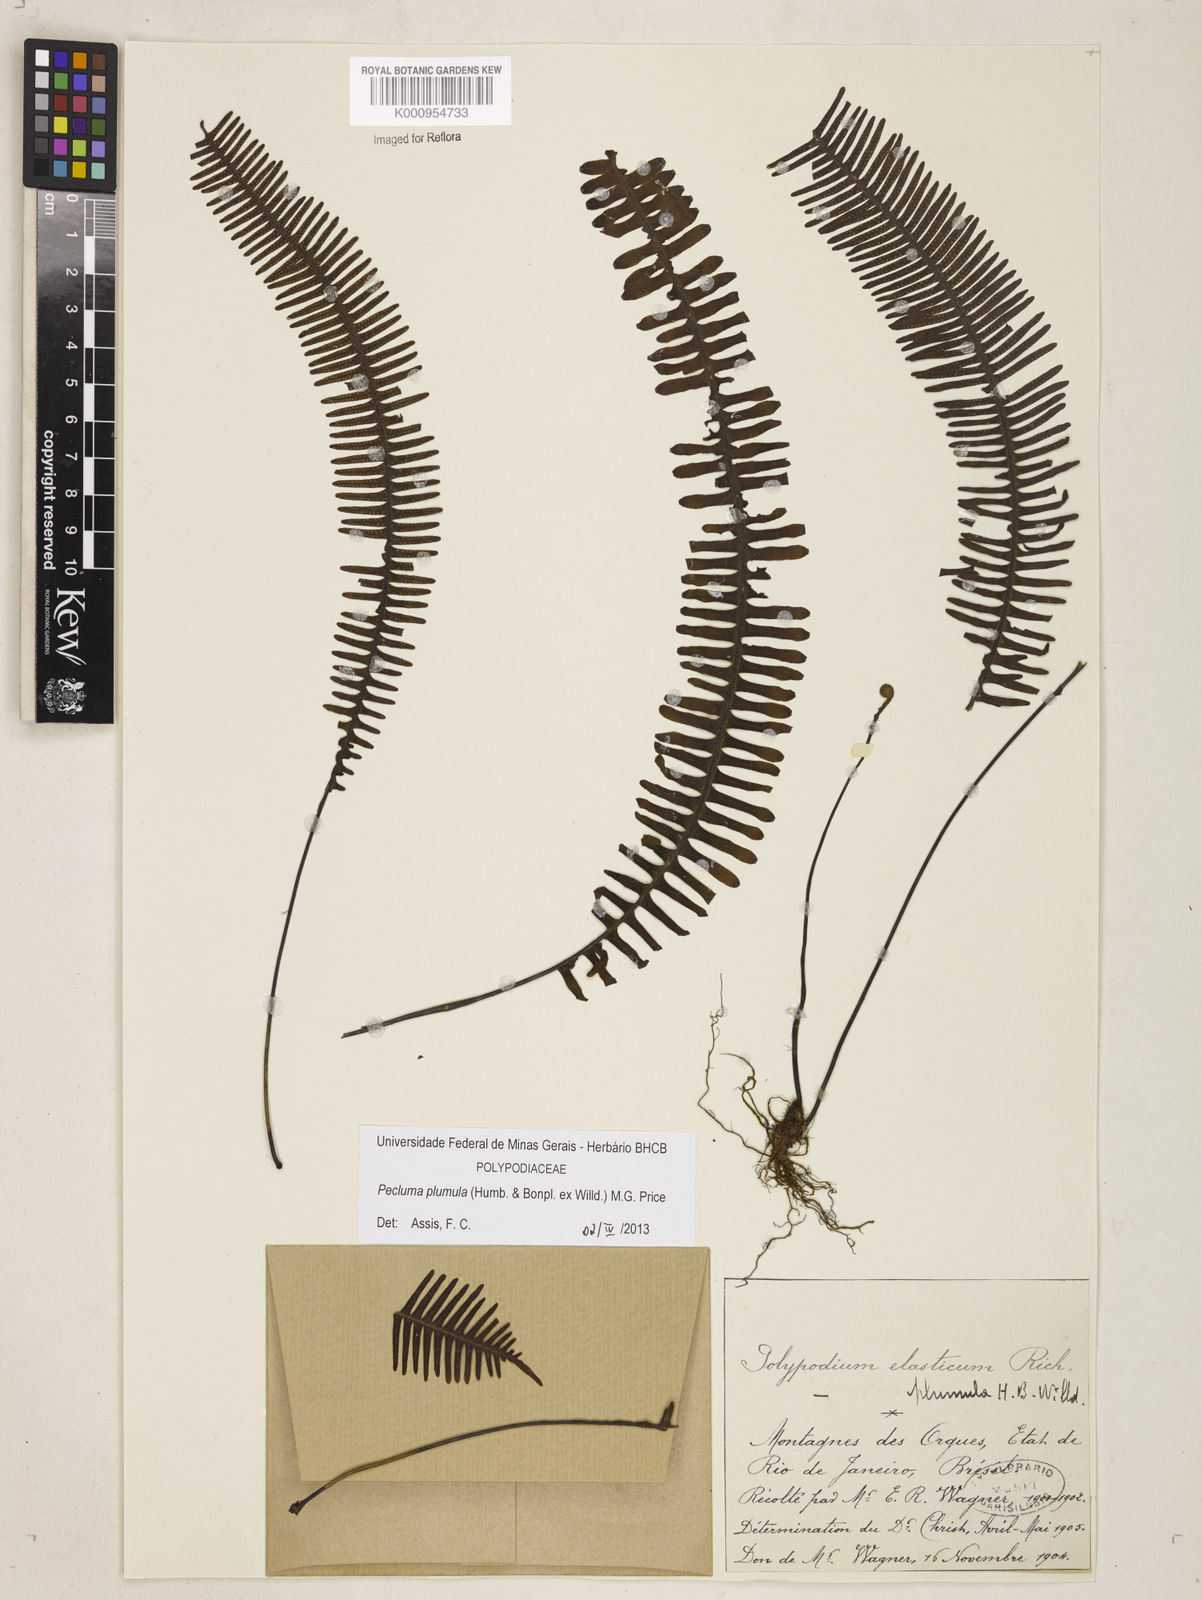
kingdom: Plantae
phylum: Tracheophyta
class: Polypodiopsida
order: Polypodiales
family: Polypodiaceae
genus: Pecluma
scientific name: Pecluma plumula
